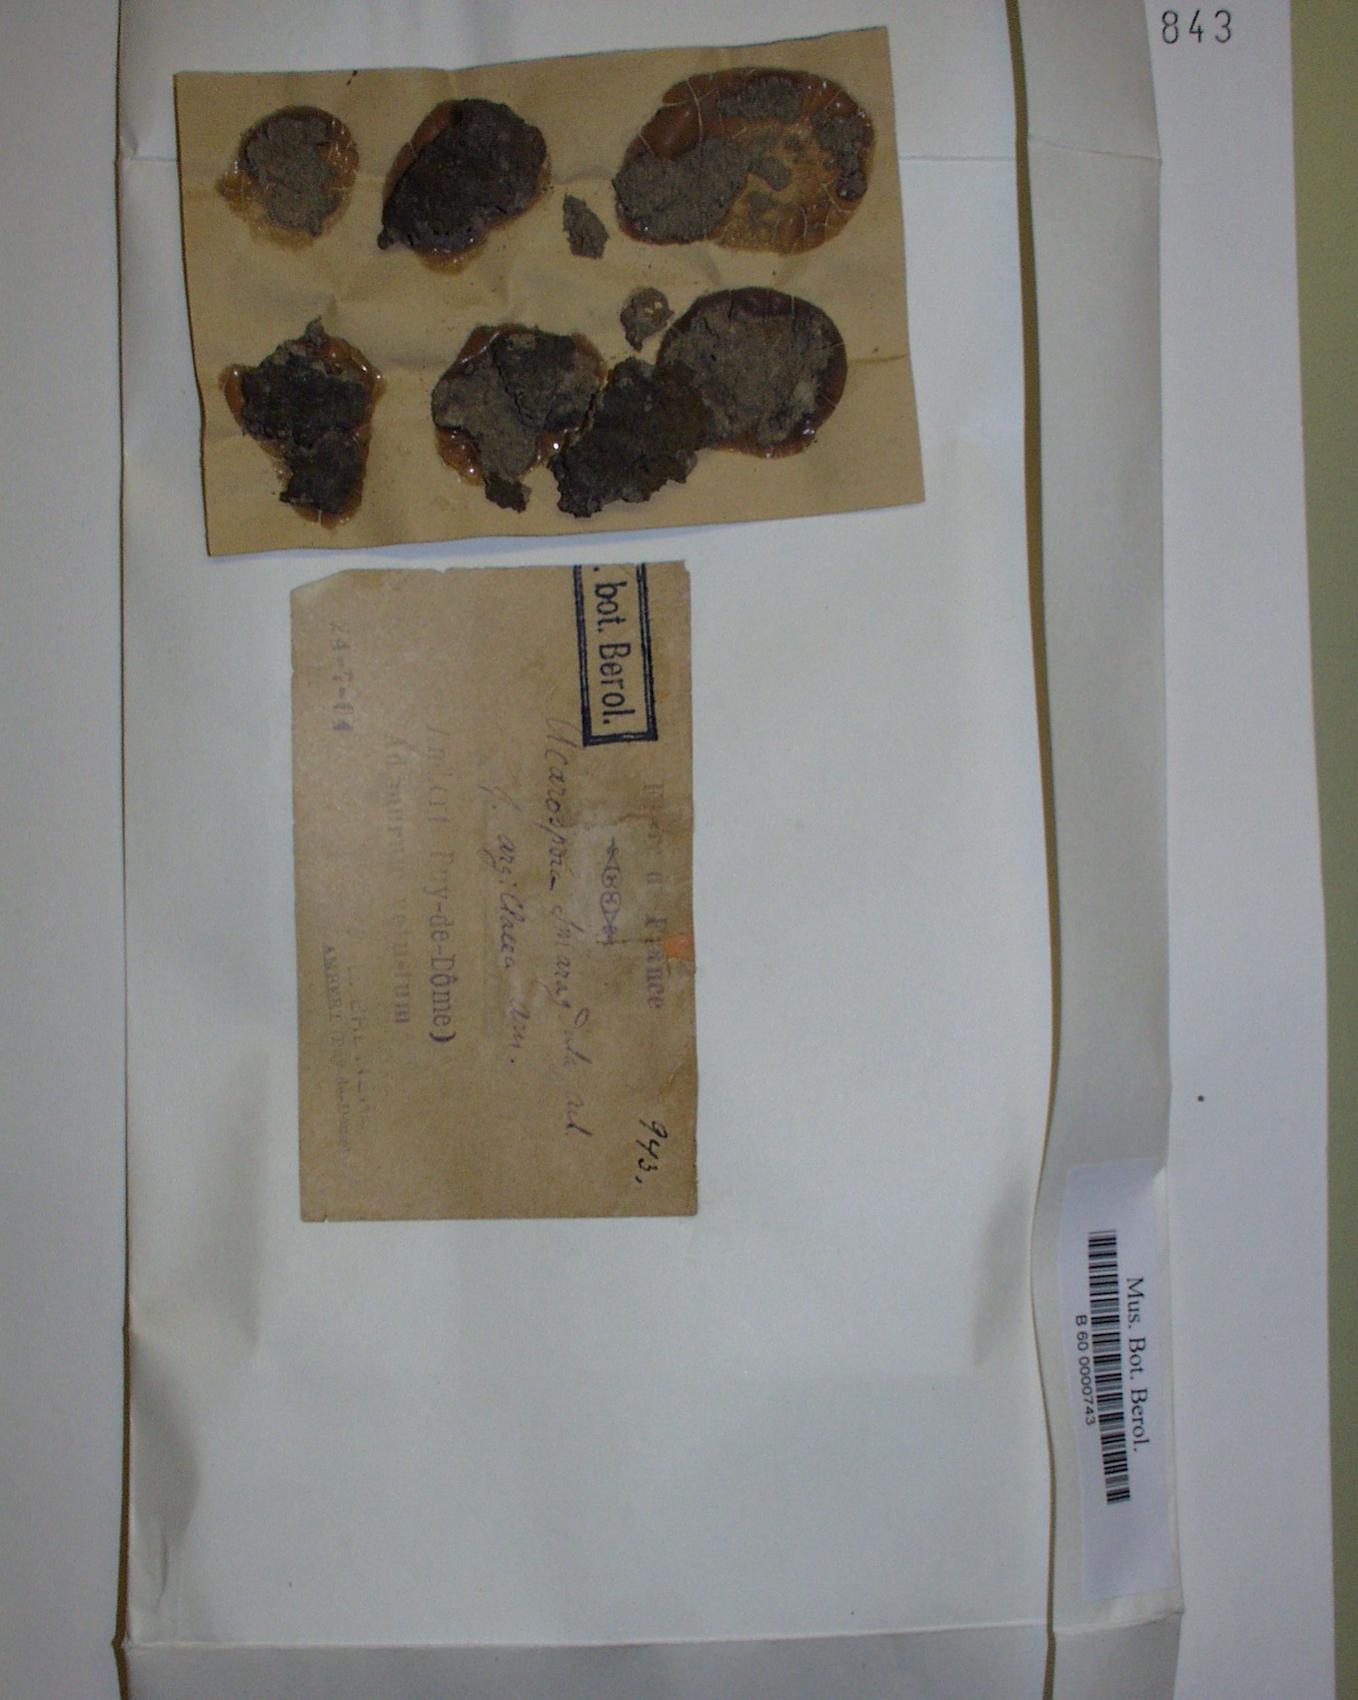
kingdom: Fungi
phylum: Ascomycota
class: Lecanoromycetes
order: Acarosporales
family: Acarosporaceae
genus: Acarospora
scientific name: Acarospora argillacea
